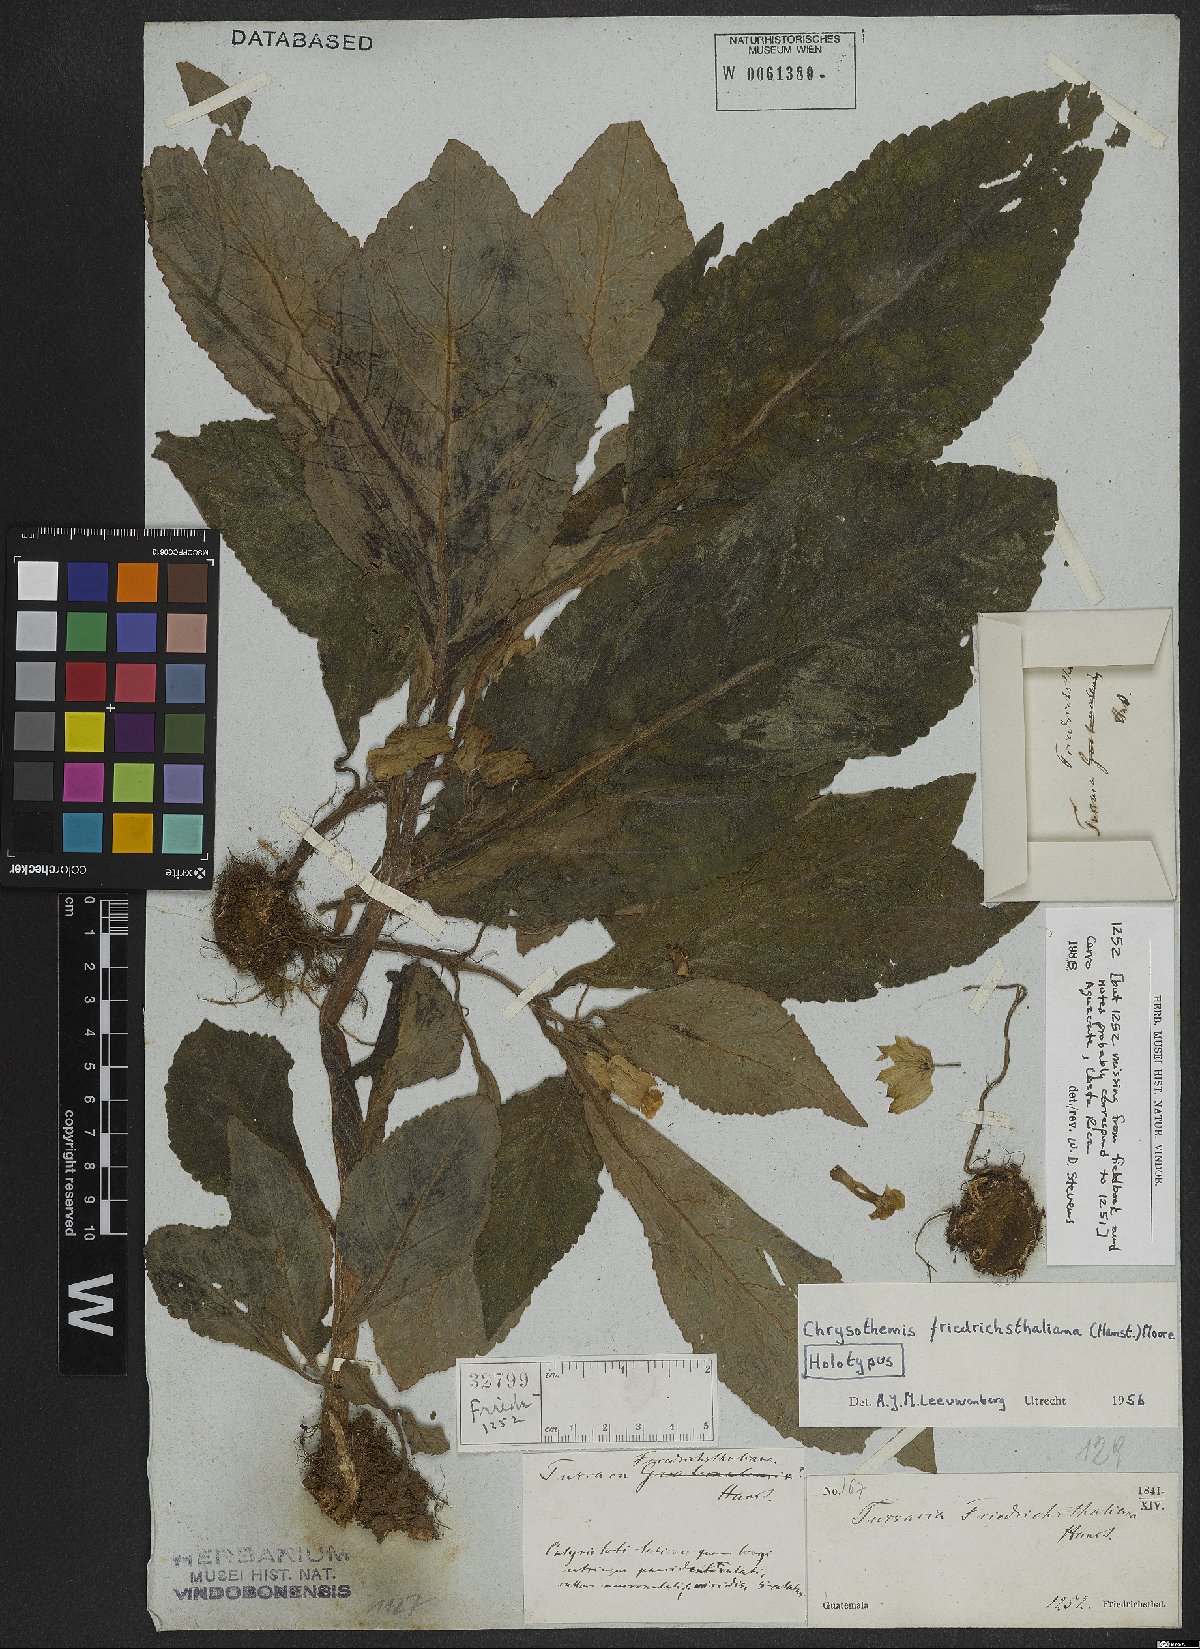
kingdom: Plantae
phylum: Tracheophyta
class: Magnoliopsida
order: Lamiales
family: Gesneriaceae
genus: Chrysothemis
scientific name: Chrysothemis friedrichsthaliana
